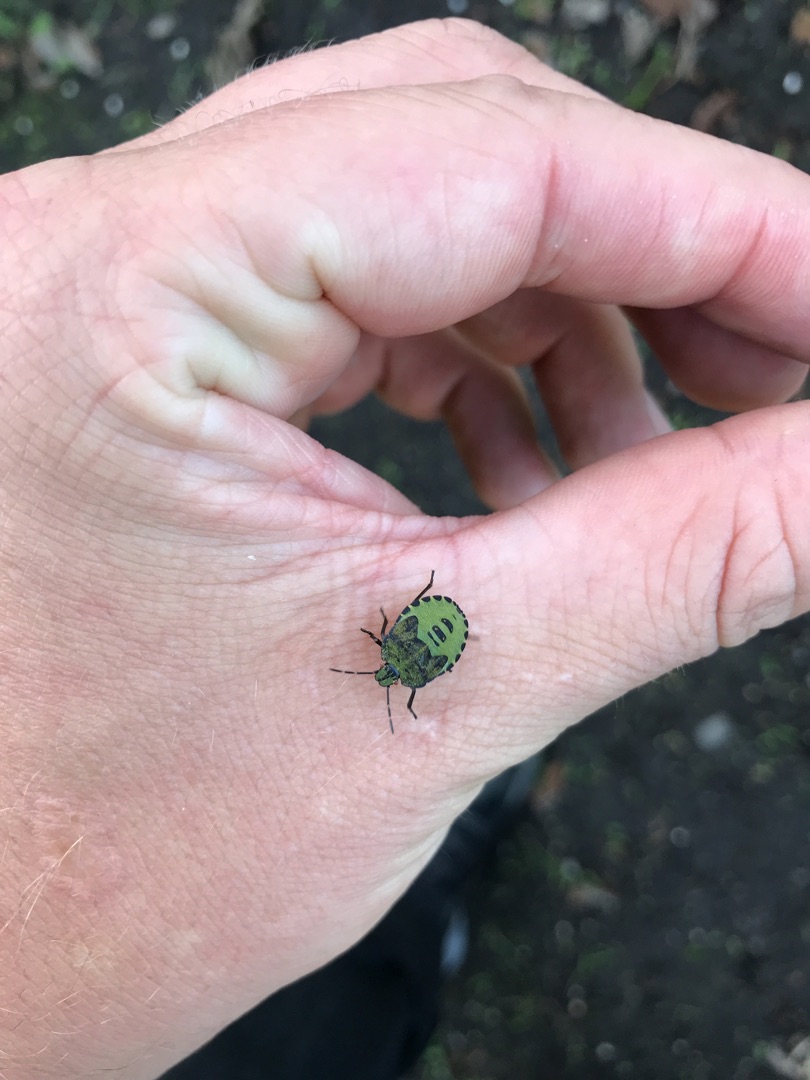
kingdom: Animalia
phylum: Arthropoda
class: Insecta
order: Hemiptera
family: Pentatomidae
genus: Palomena
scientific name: Palomena prasina
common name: Grøn bredtæge
